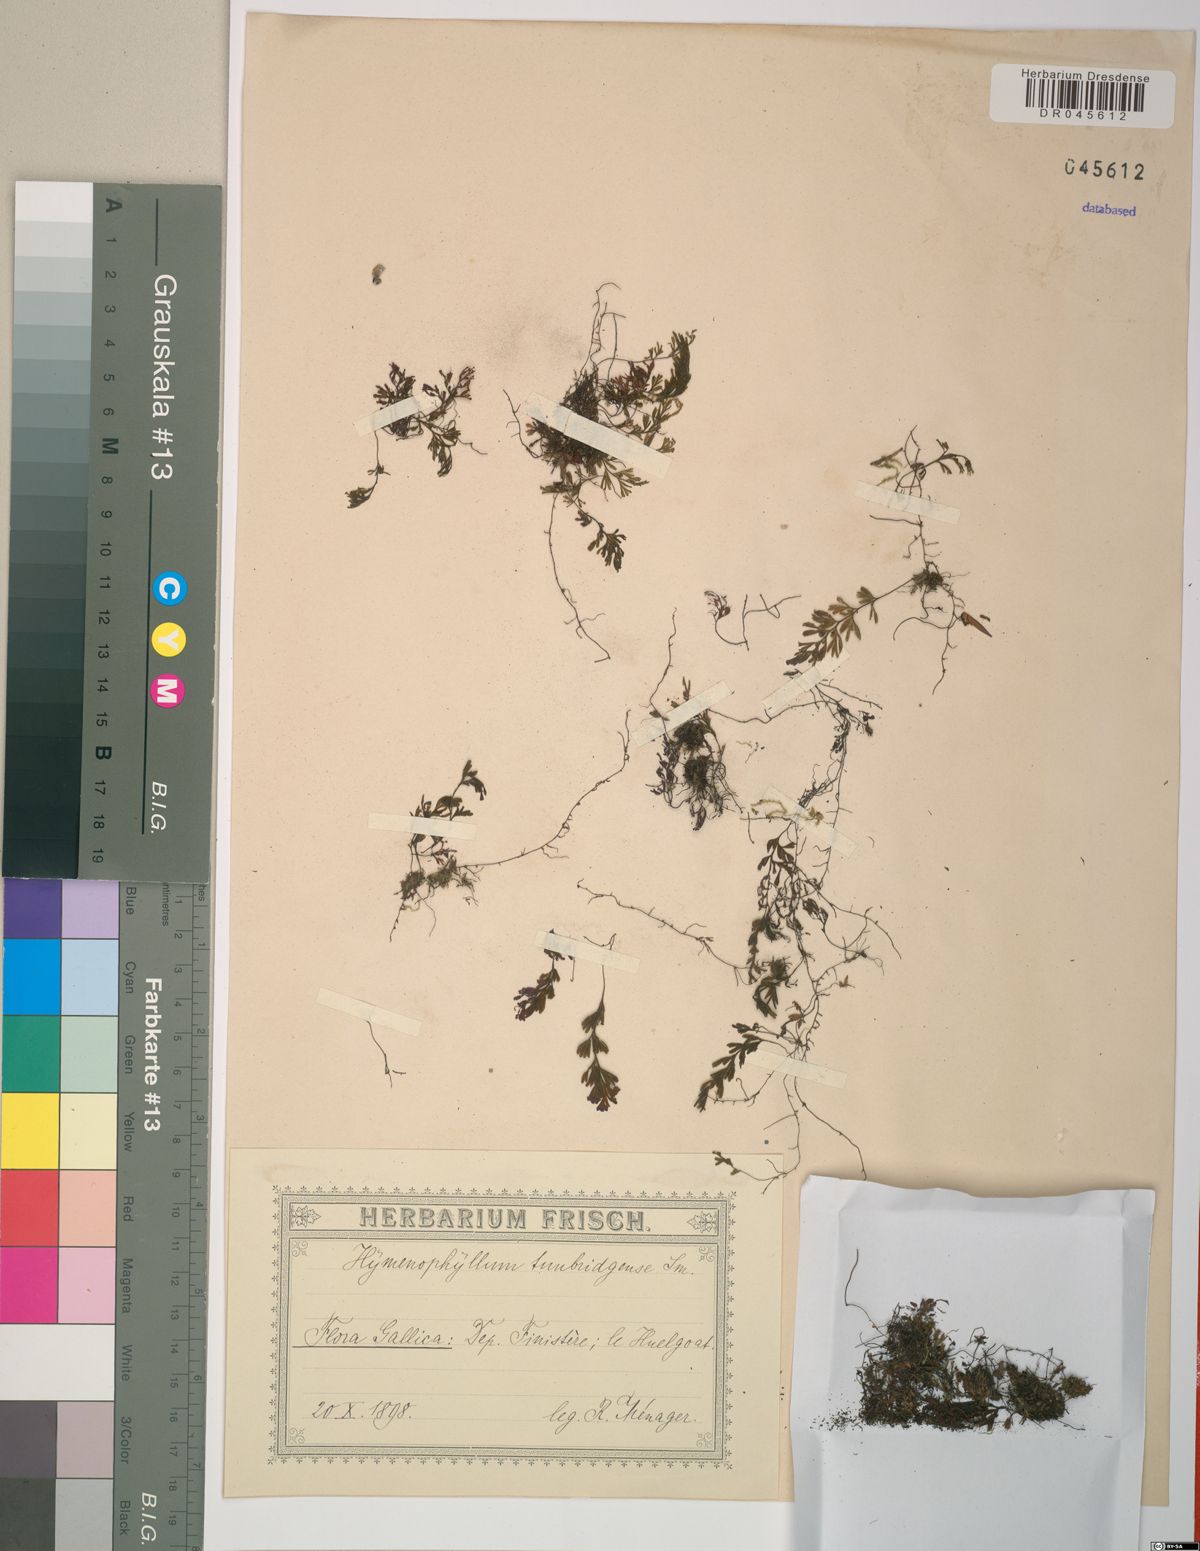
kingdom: Plantae
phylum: Tracheophyta
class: Polypodiopsida
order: Hymenophyllales
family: Hymenophyllaceae
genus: Hymenophyllum
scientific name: Hymenophyllum tunbrigense
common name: Tunbridge filmy fern
